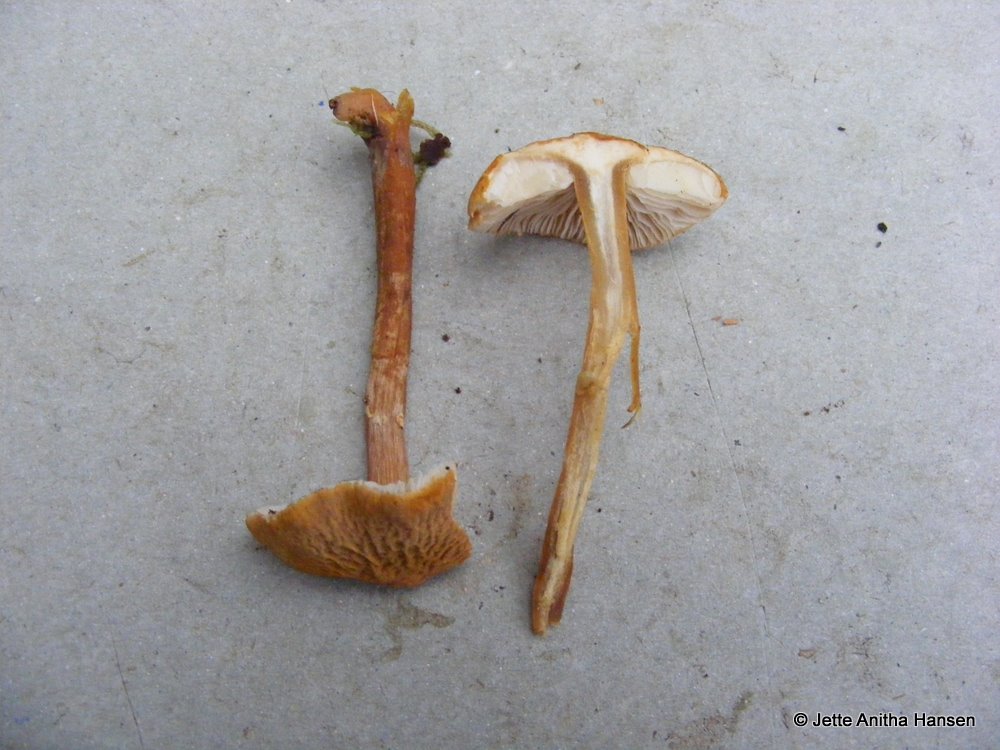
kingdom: Fungi
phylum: Basidiomycota
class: Agaricomycetes
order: Agaricales
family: Tricholomataceae
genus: Cystoderma
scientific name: Cystoderma amianthinum
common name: okkergul grynhat
